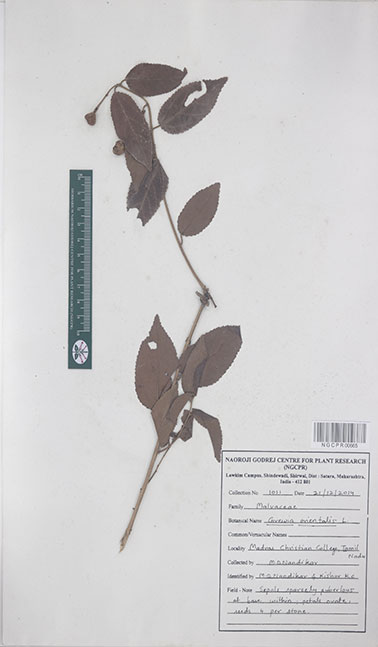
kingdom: Plantae
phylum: Tracheophyta
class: Magnoliopsida
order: Malvales
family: Malvaceae
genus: Grewia
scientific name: Grewia orientalis
